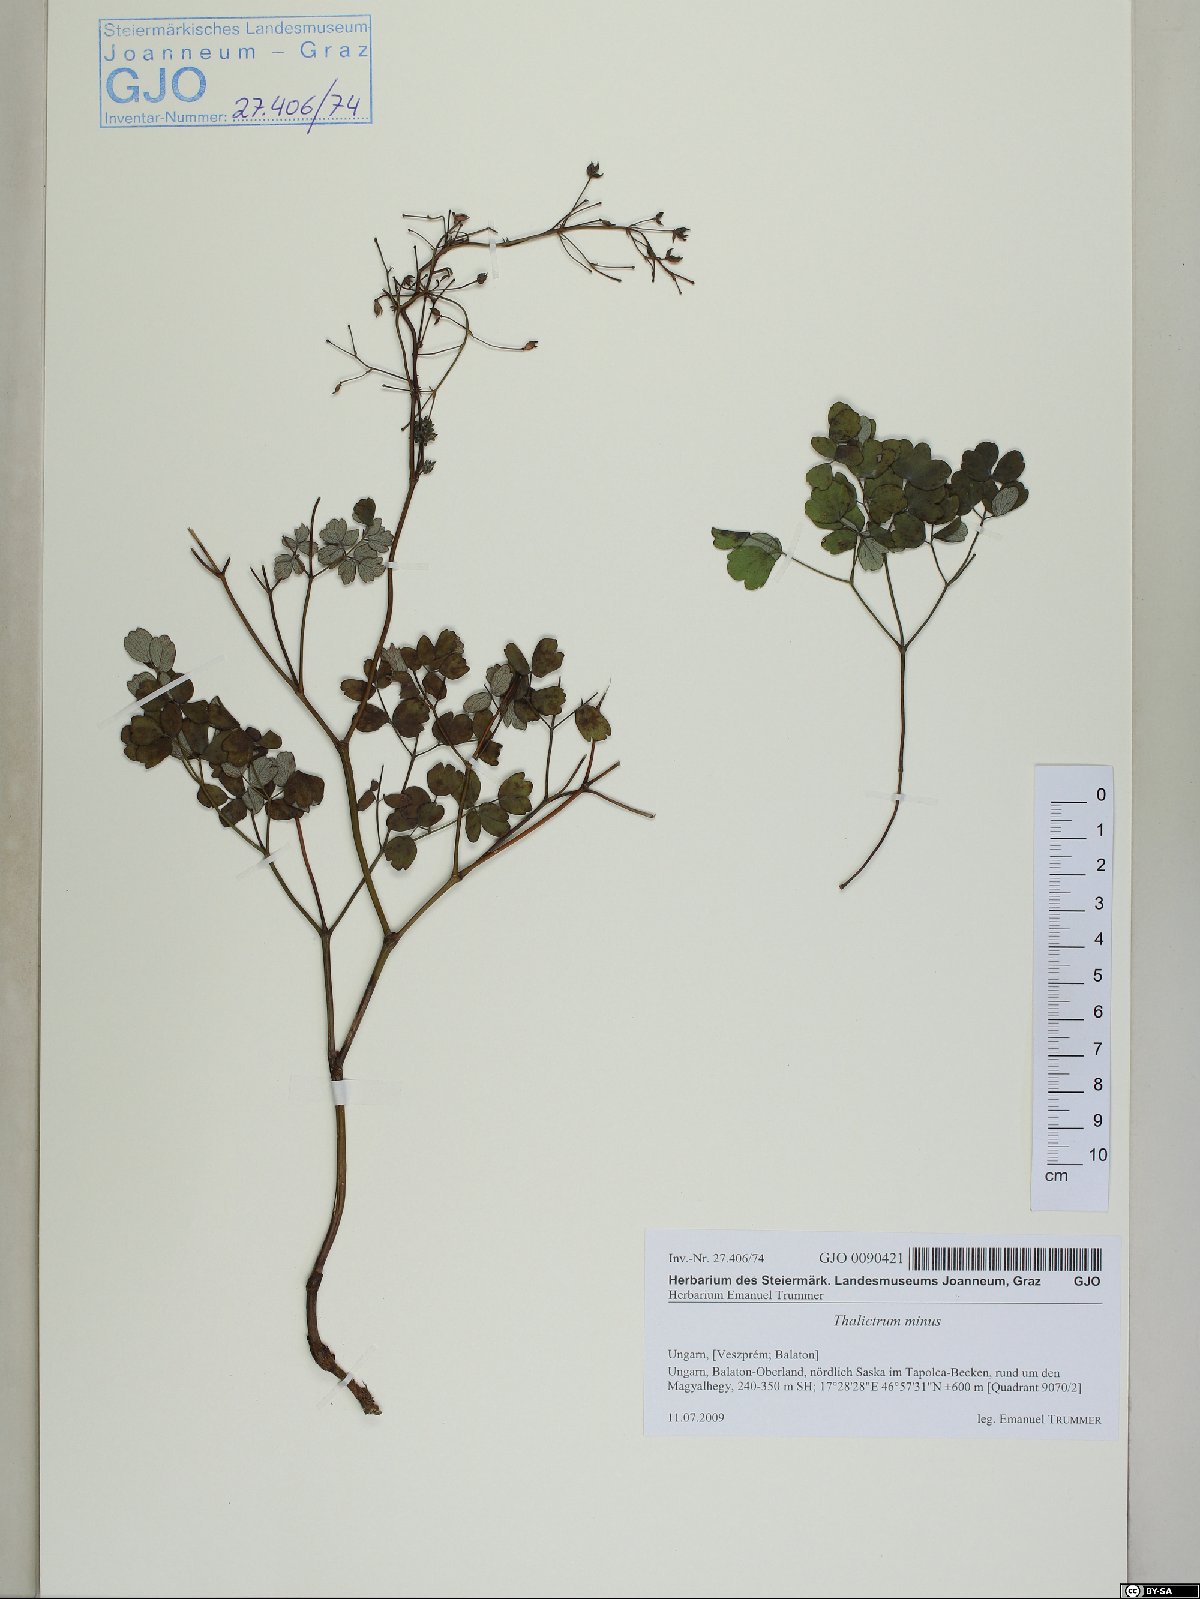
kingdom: Plantae
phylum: Tracheophyta
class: Magnoliopsida
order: Ranunculales
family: Ranunculaceae
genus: Thalictrum
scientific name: Thalictrum minus
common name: Lesser meadow-rue
